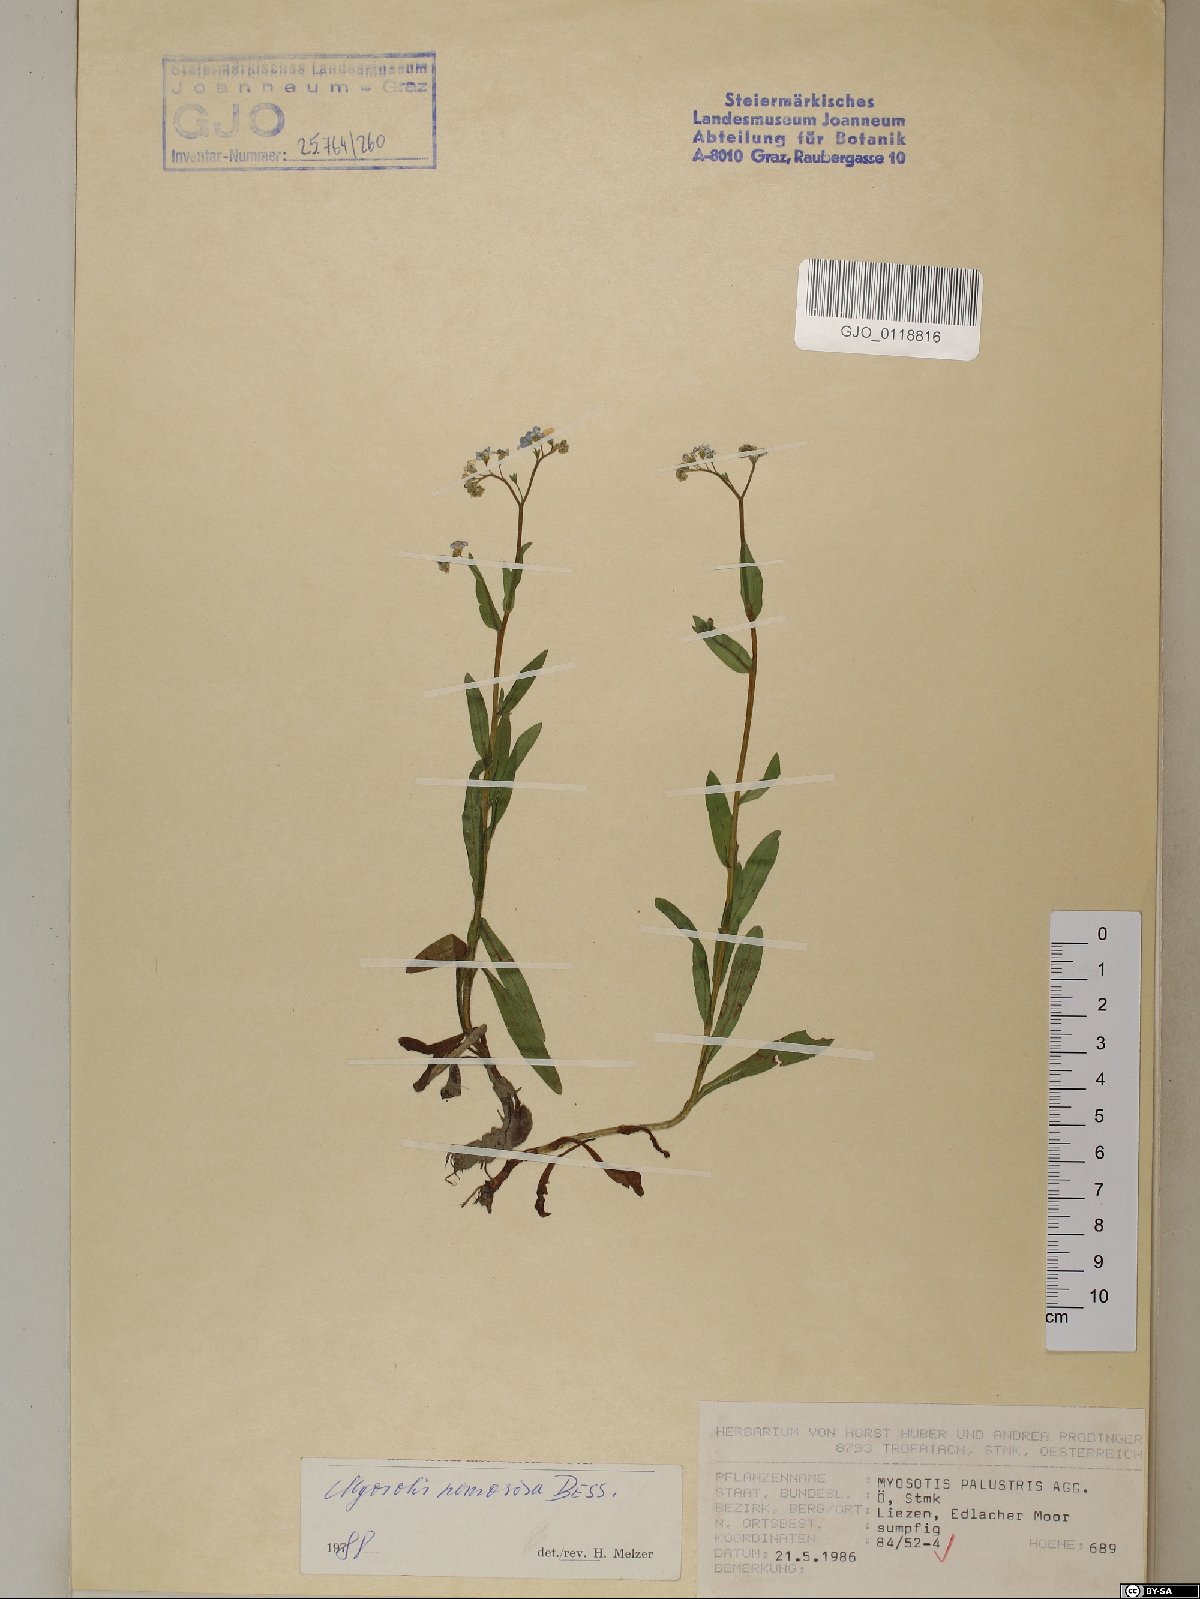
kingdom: Plantae
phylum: Tracheophyta
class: Magnoliopsida
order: Boraginales
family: Boraginaceae
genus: Myosotis
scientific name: Myosotis nemorosa
